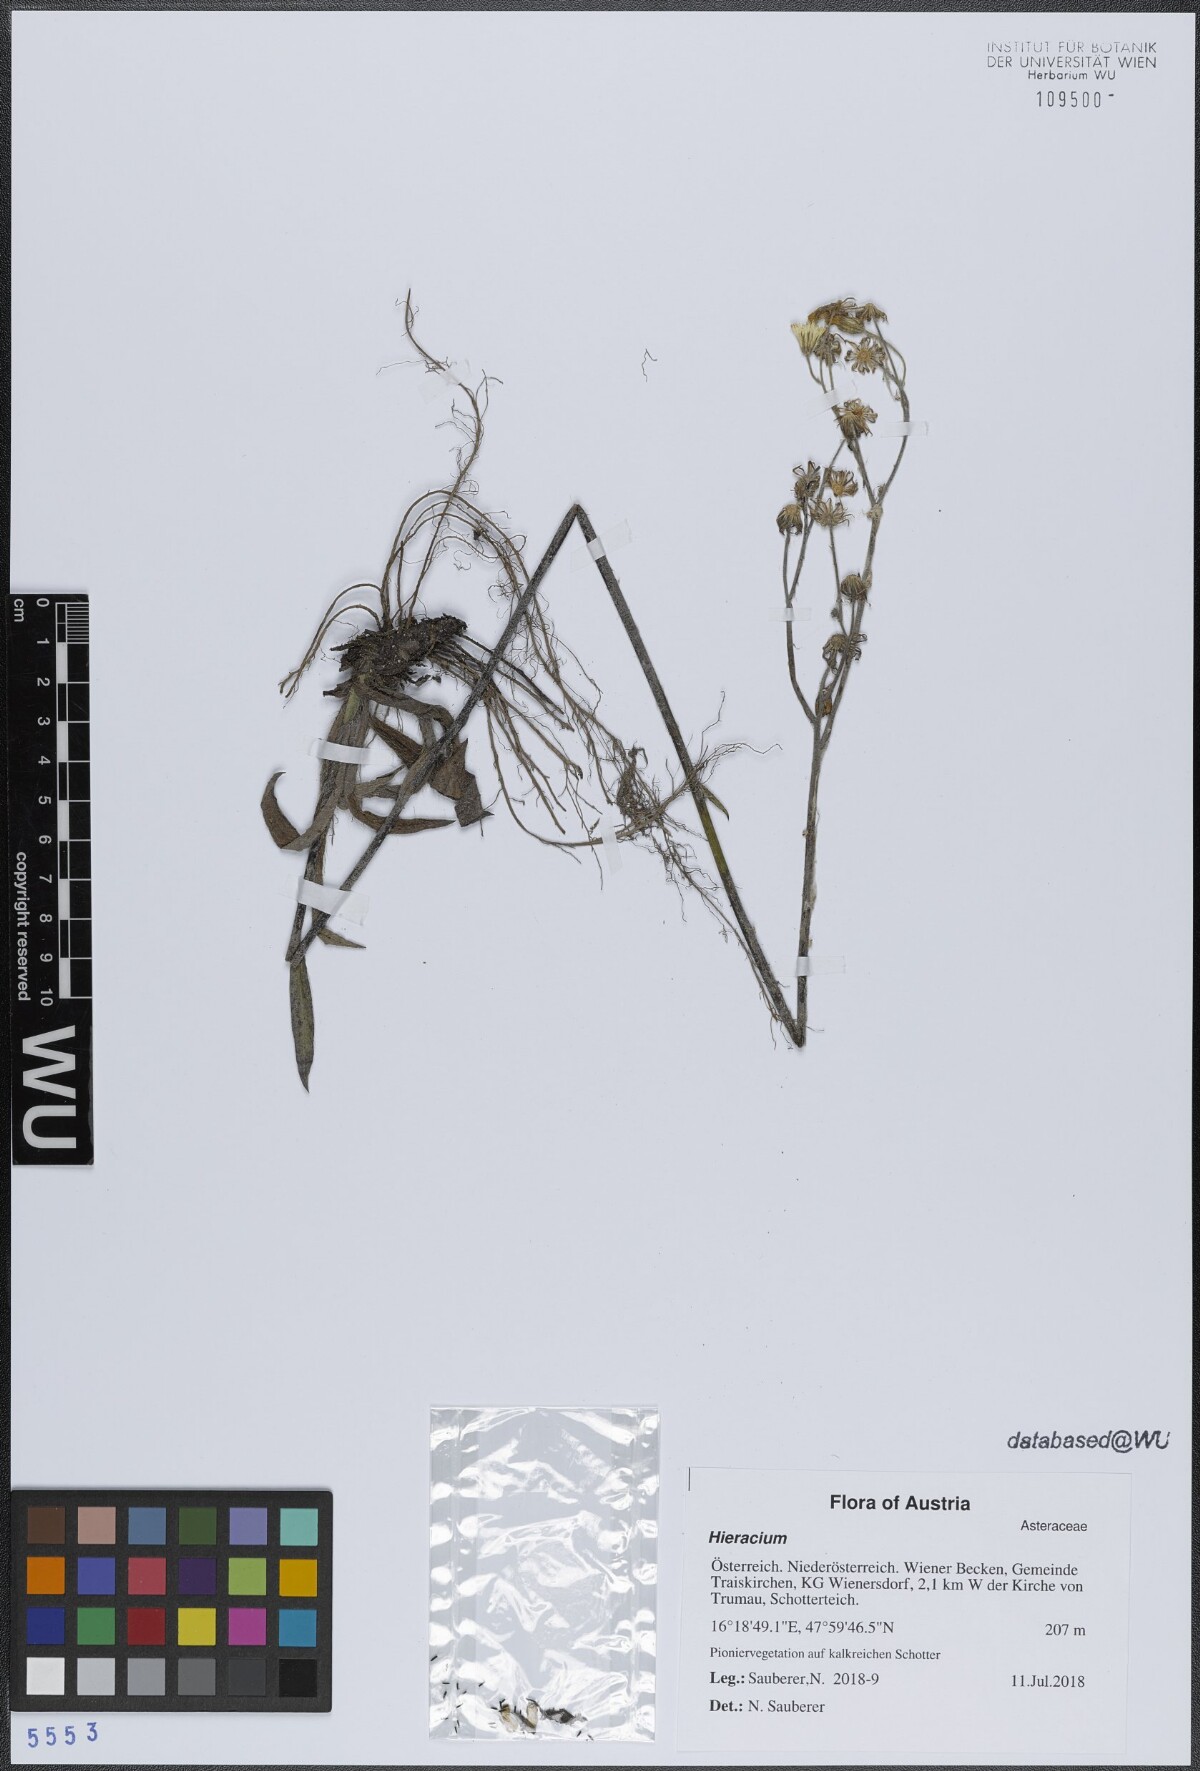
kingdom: Plantae
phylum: Tracheophyta
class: Magnoliopsida
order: Asterales
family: Asteraceae
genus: Hieracium
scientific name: Hieracium
